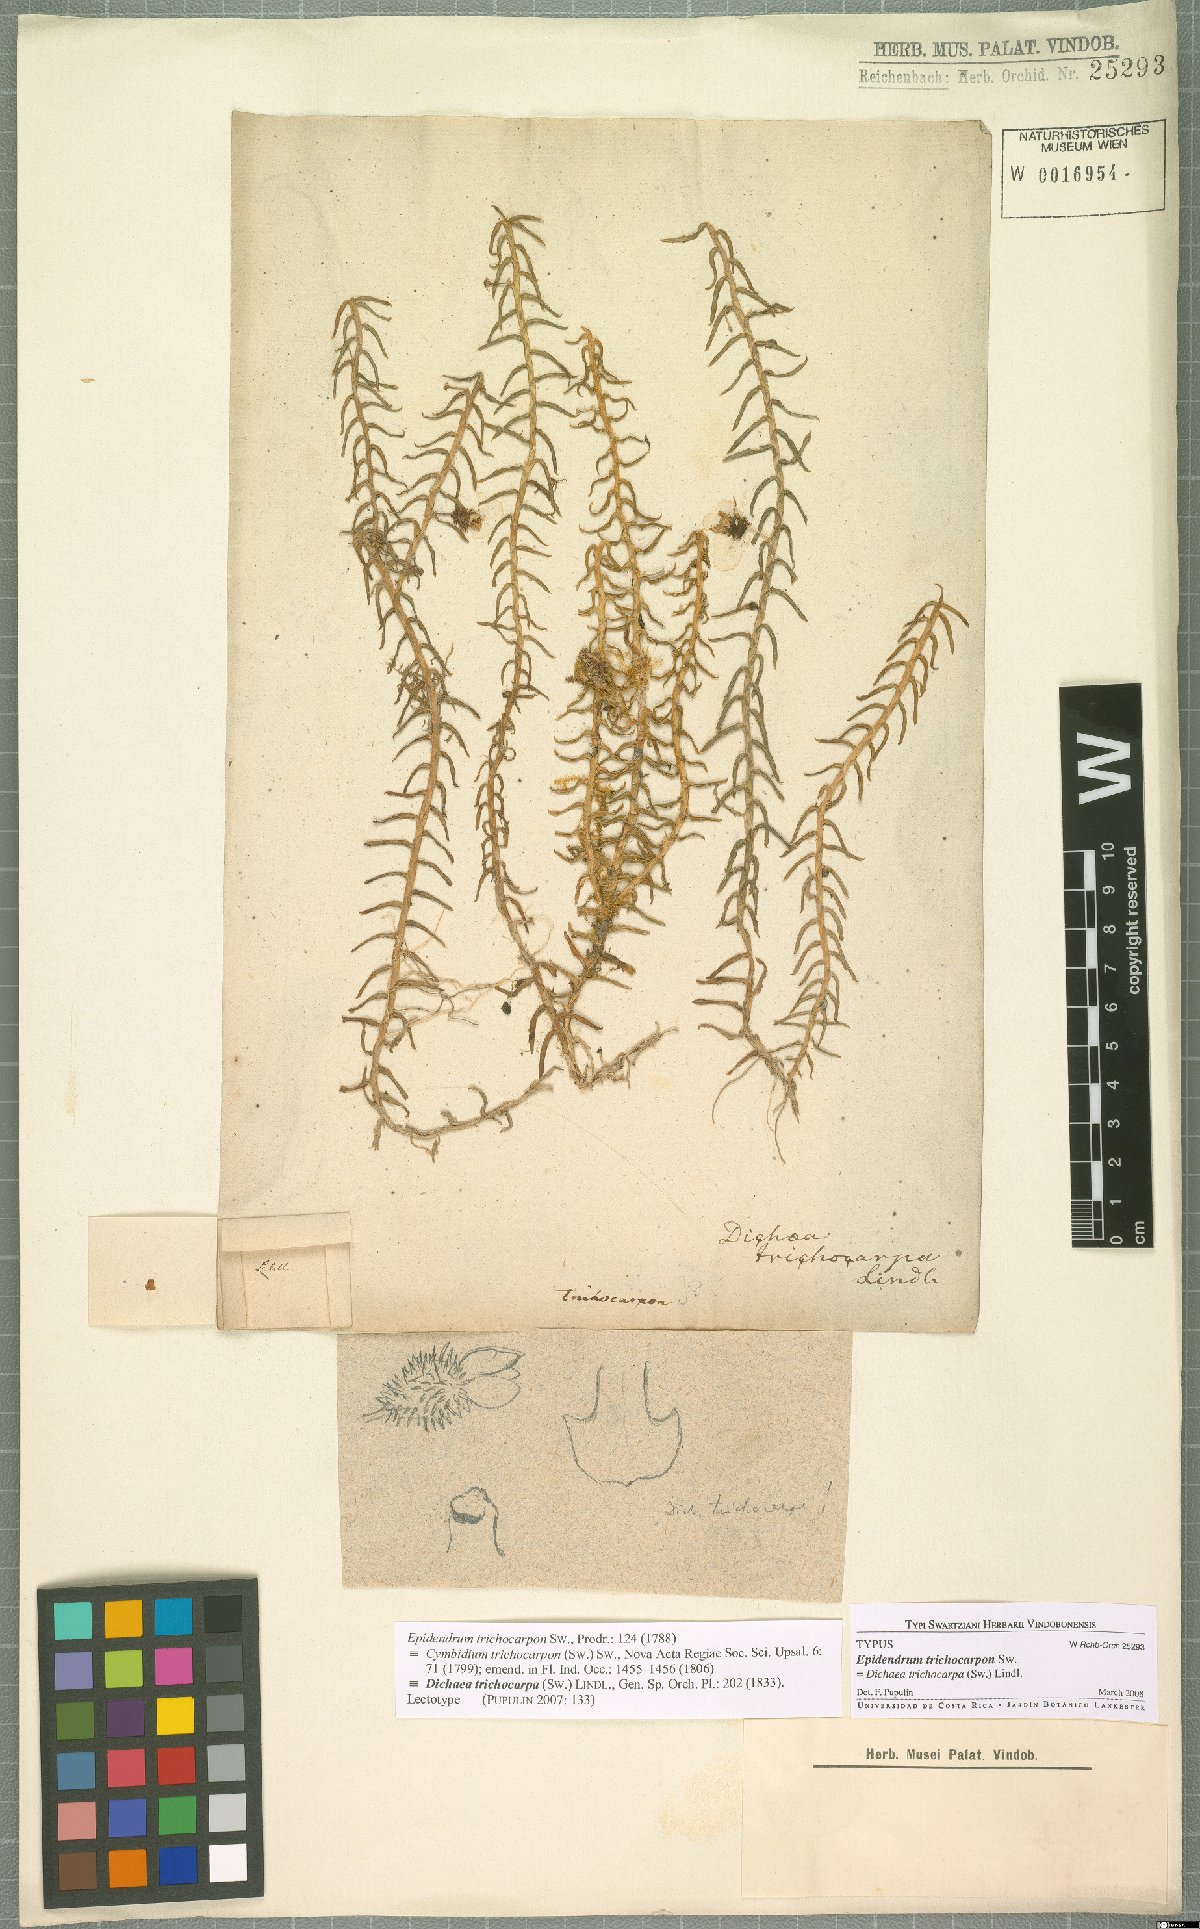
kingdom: Plantae
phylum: Tracheophyta
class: Liliopsida
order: Asparagales
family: Orchidaceae
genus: Dichaea
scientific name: Dichaea trichocarpa
